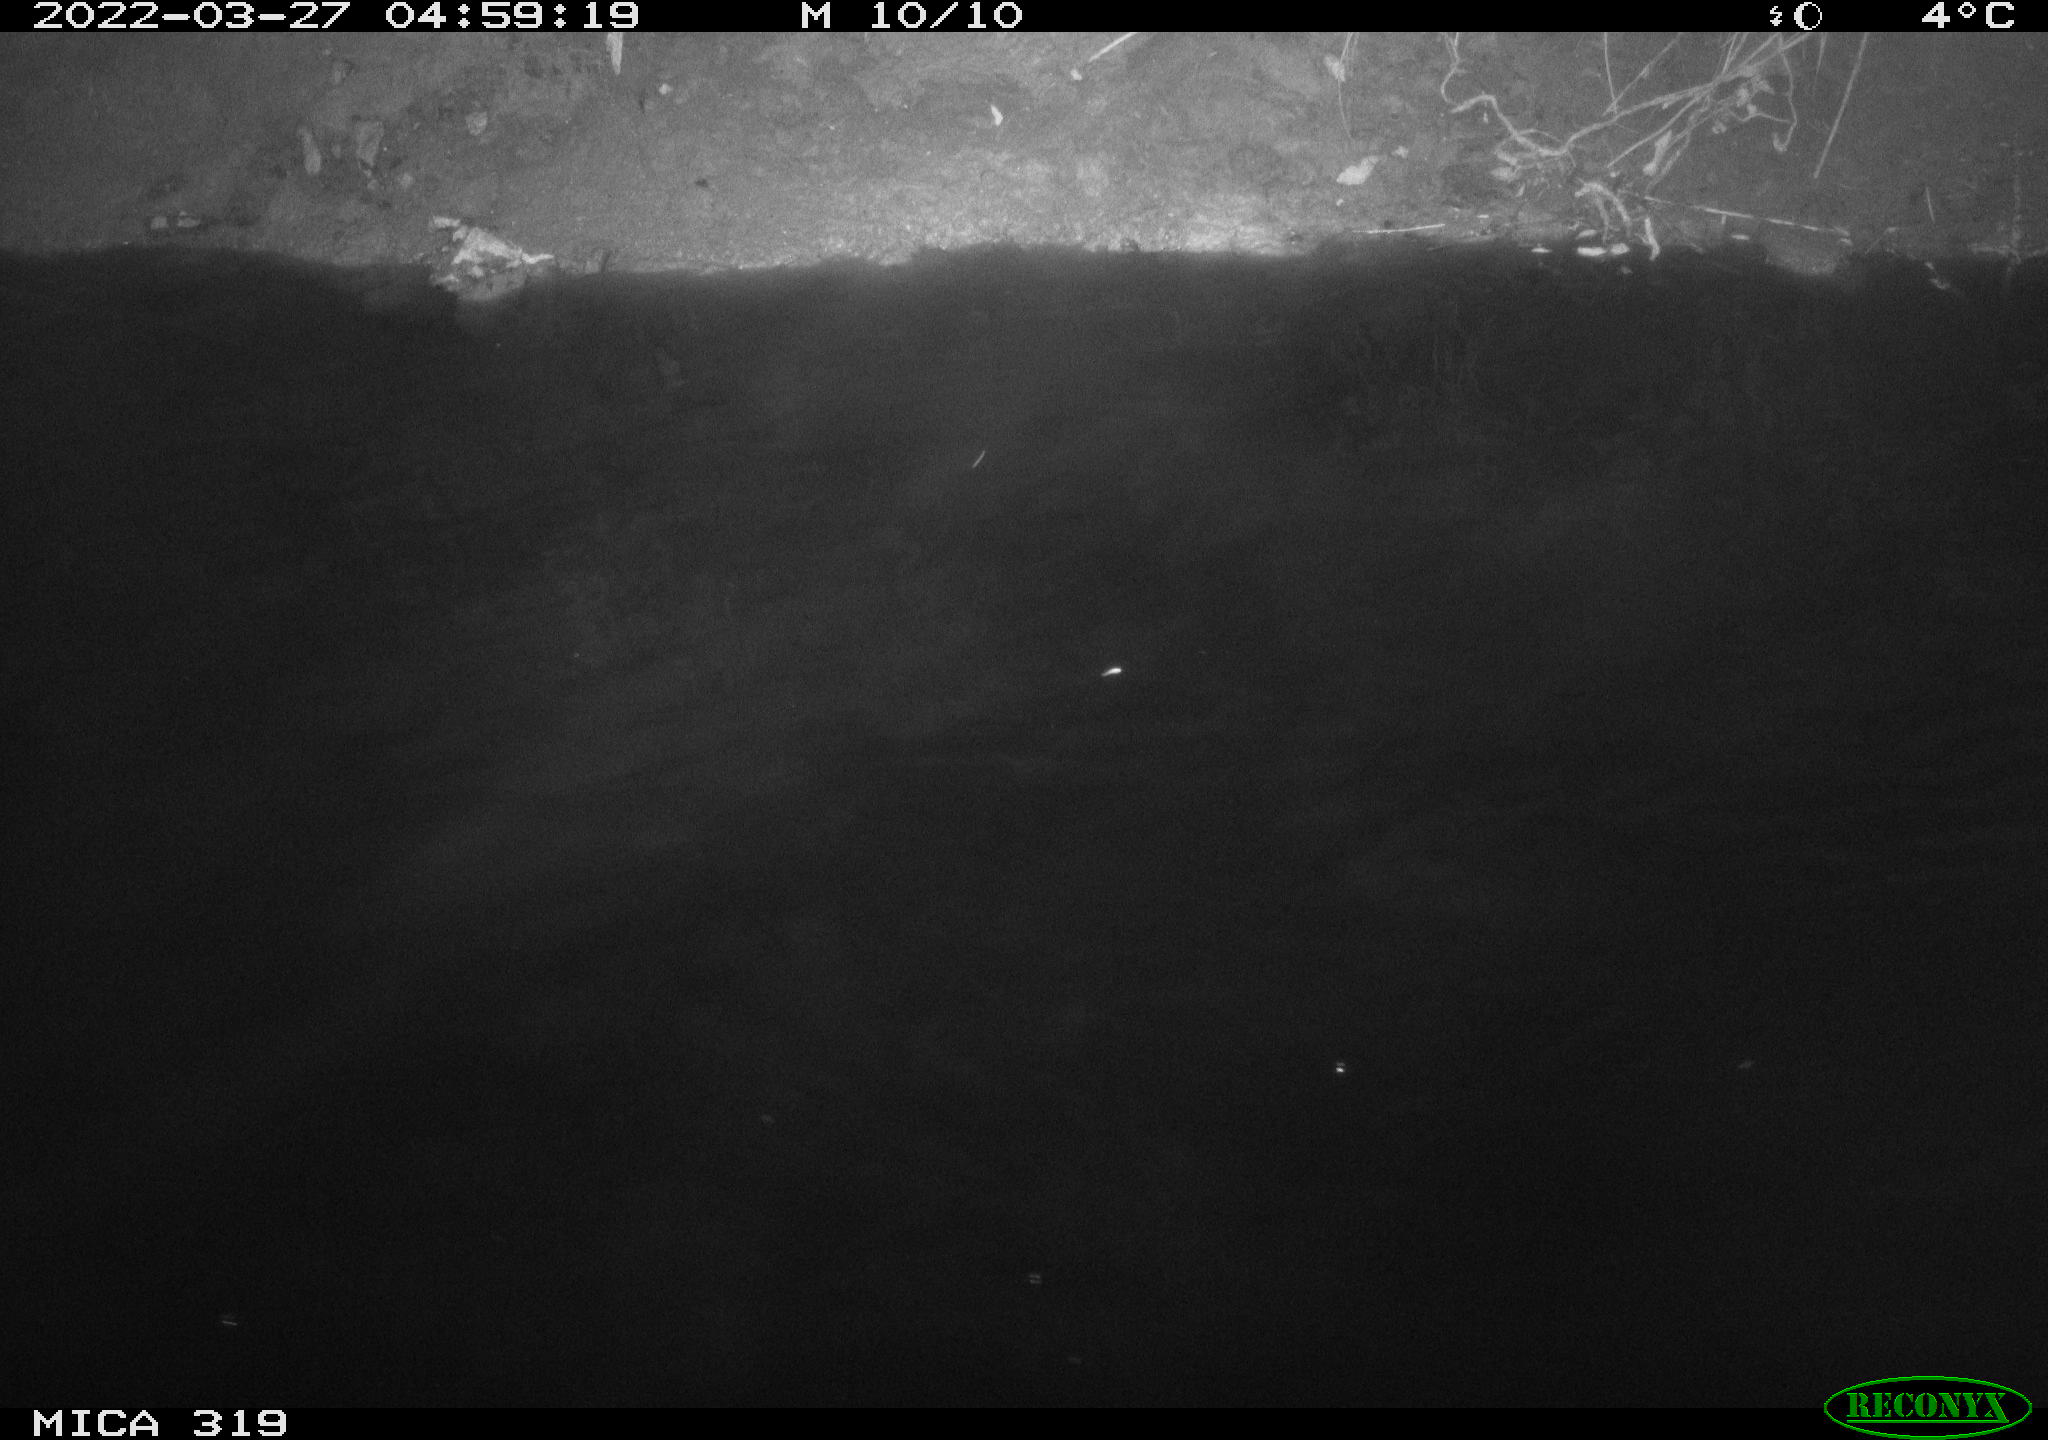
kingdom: Animalia
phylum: Chordata
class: Aves
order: Gruiformes
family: Rallidae
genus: Gallinula
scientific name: Gallinula chloropus
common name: Common moorhen
